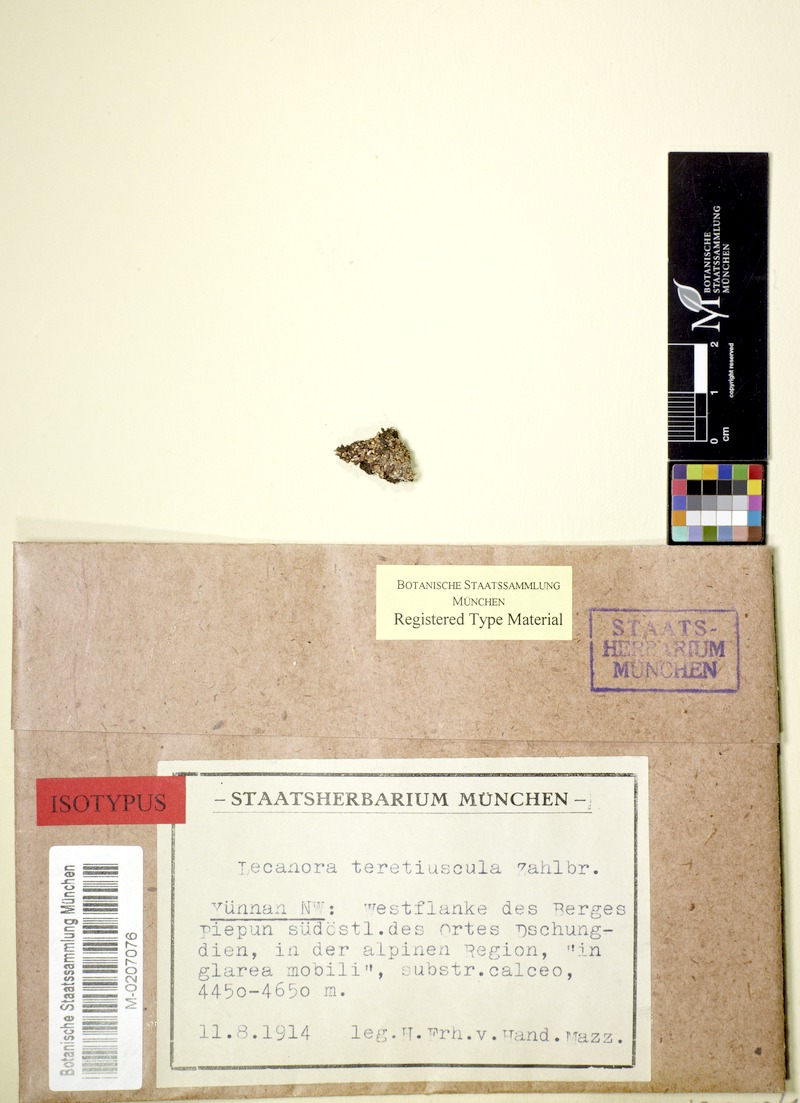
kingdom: Fungi
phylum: Ascomycota
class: Lecanoromycetes
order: Lecanorales
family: Lecanoraceae
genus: Lecanora
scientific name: Lecanora geophila
